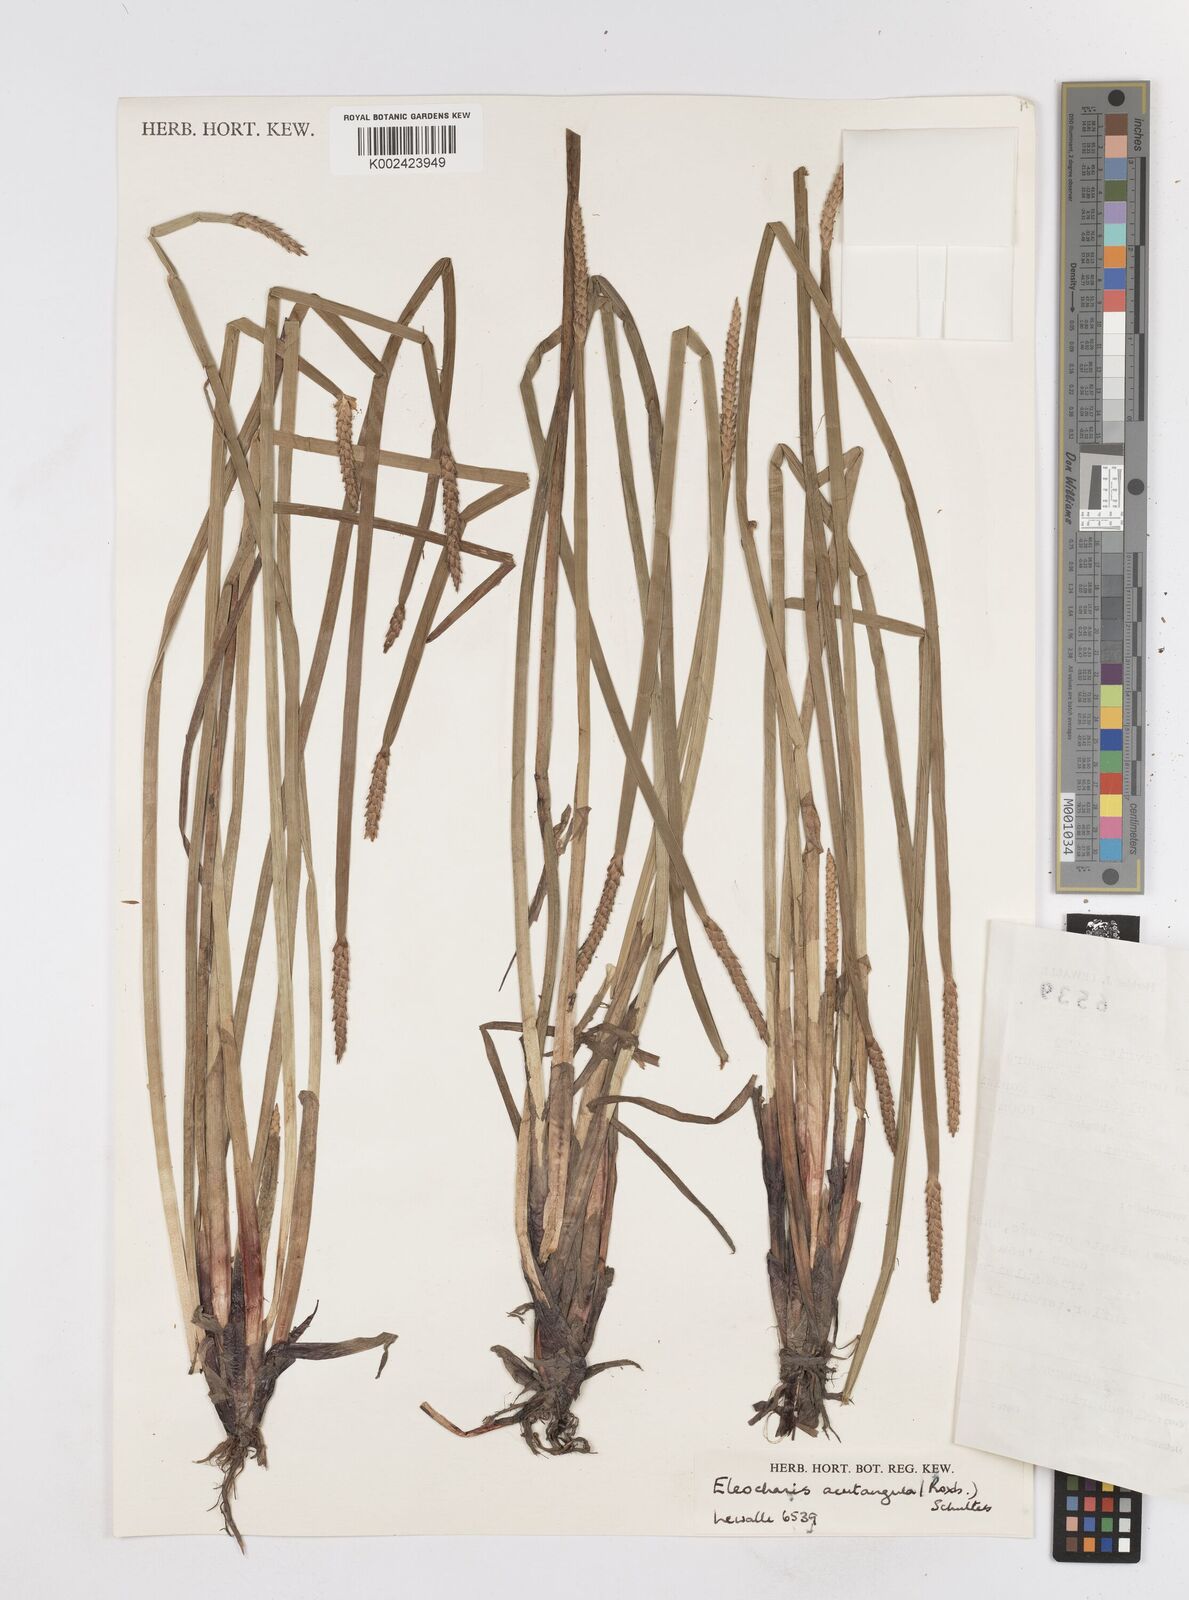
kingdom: Plantae
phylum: Tracheophyta
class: Liliopsida
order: Poales
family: Cyperaceae
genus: Eleocharis
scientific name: Eleocharis acutangula
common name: Acute spikerush
